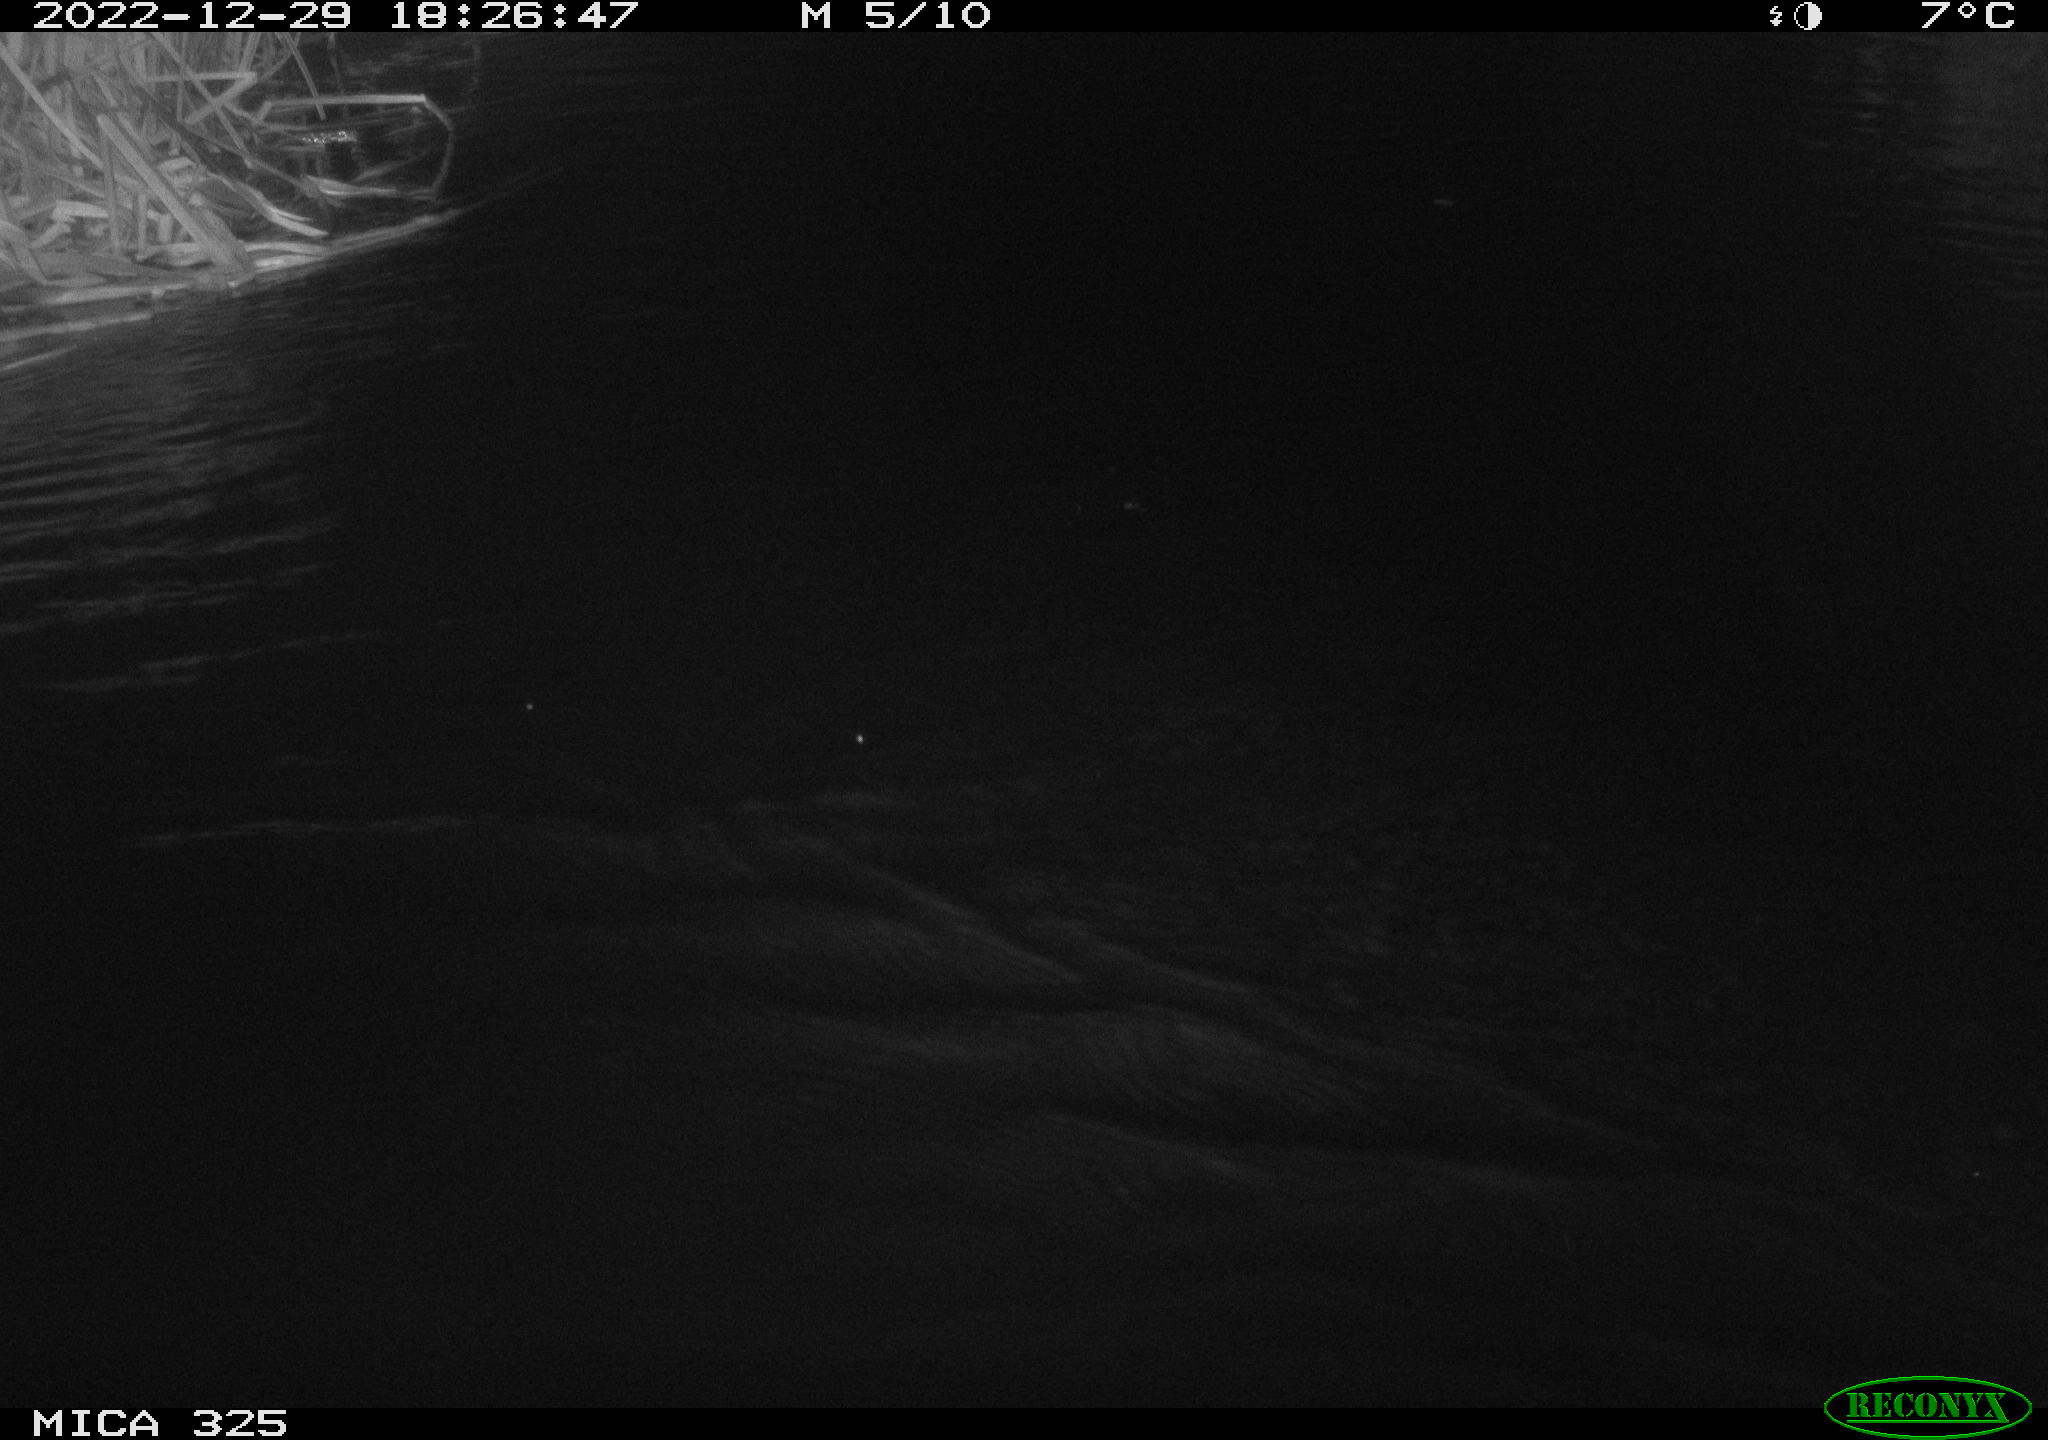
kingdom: Animalia
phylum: Chordata
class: Mammalia
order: Rodentia
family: Cricetidae
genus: Ondatra
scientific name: Ondatra zibethicus
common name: Muskrat
